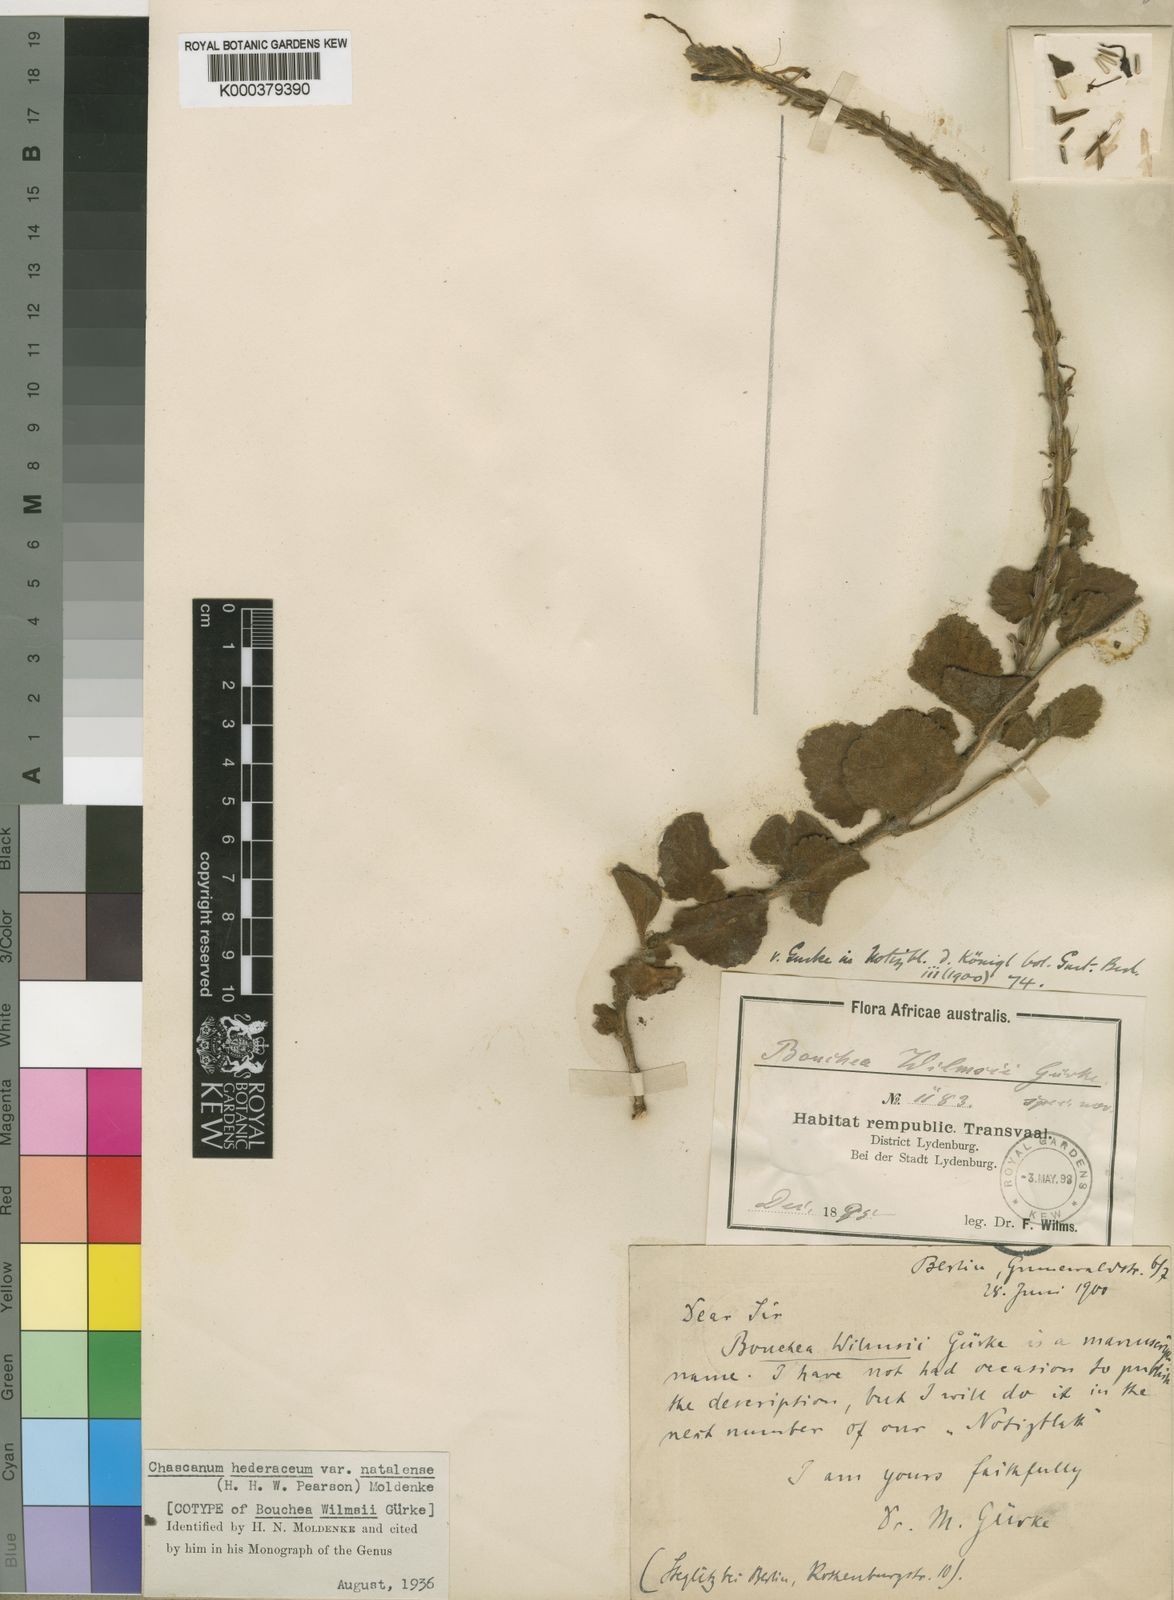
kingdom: Plantae
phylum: Tracheophyta
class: Magnoliopsida
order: Lamiales
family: Verbenaceae
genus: Chascanum
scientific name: Chascanum hederaceum
